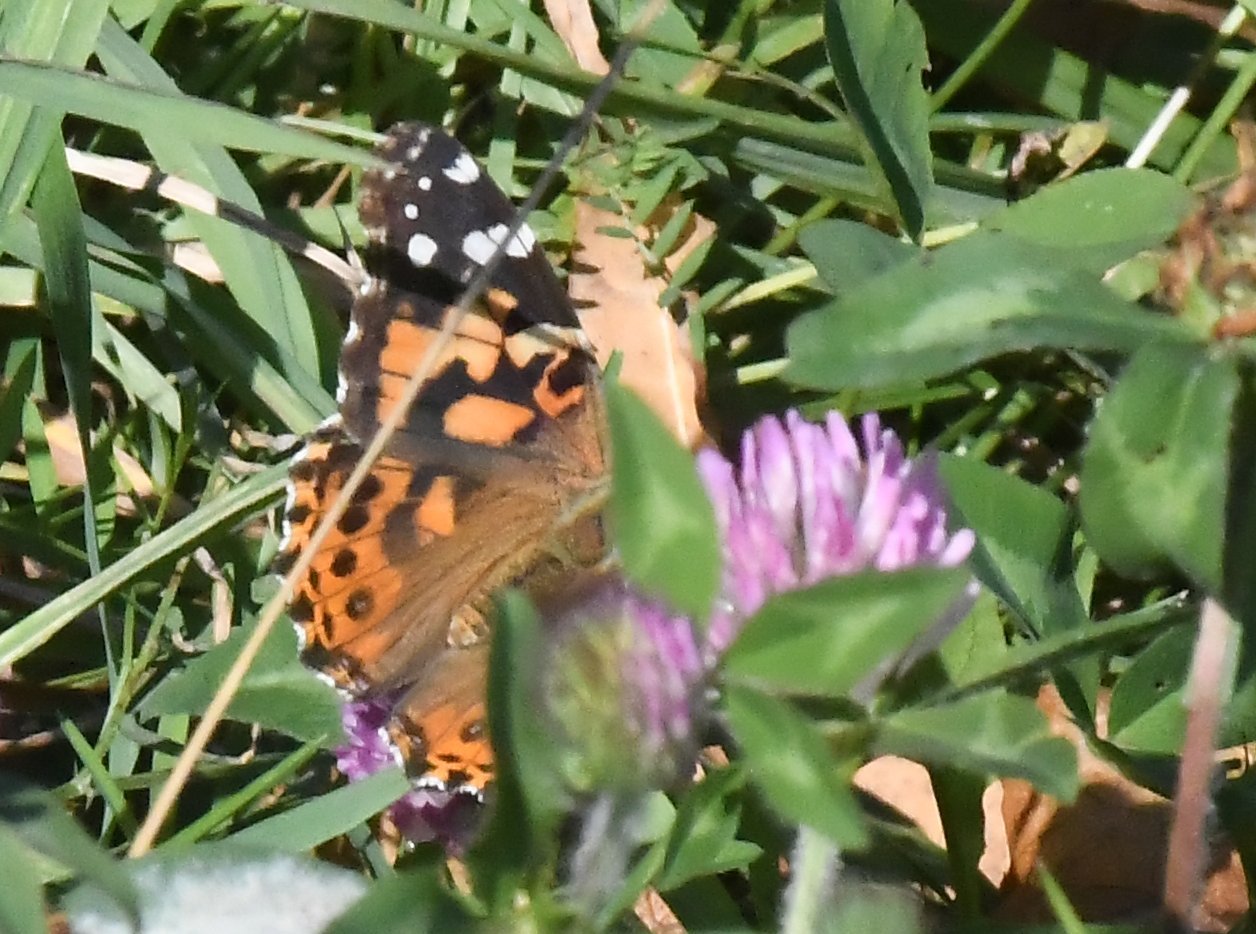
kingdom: Animalia
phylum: Arthropoda
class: Insecta
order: Lepidoptera
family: Nymphalidae
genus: Vanessa
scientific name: Vanessa cardui
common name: Painted Lady
